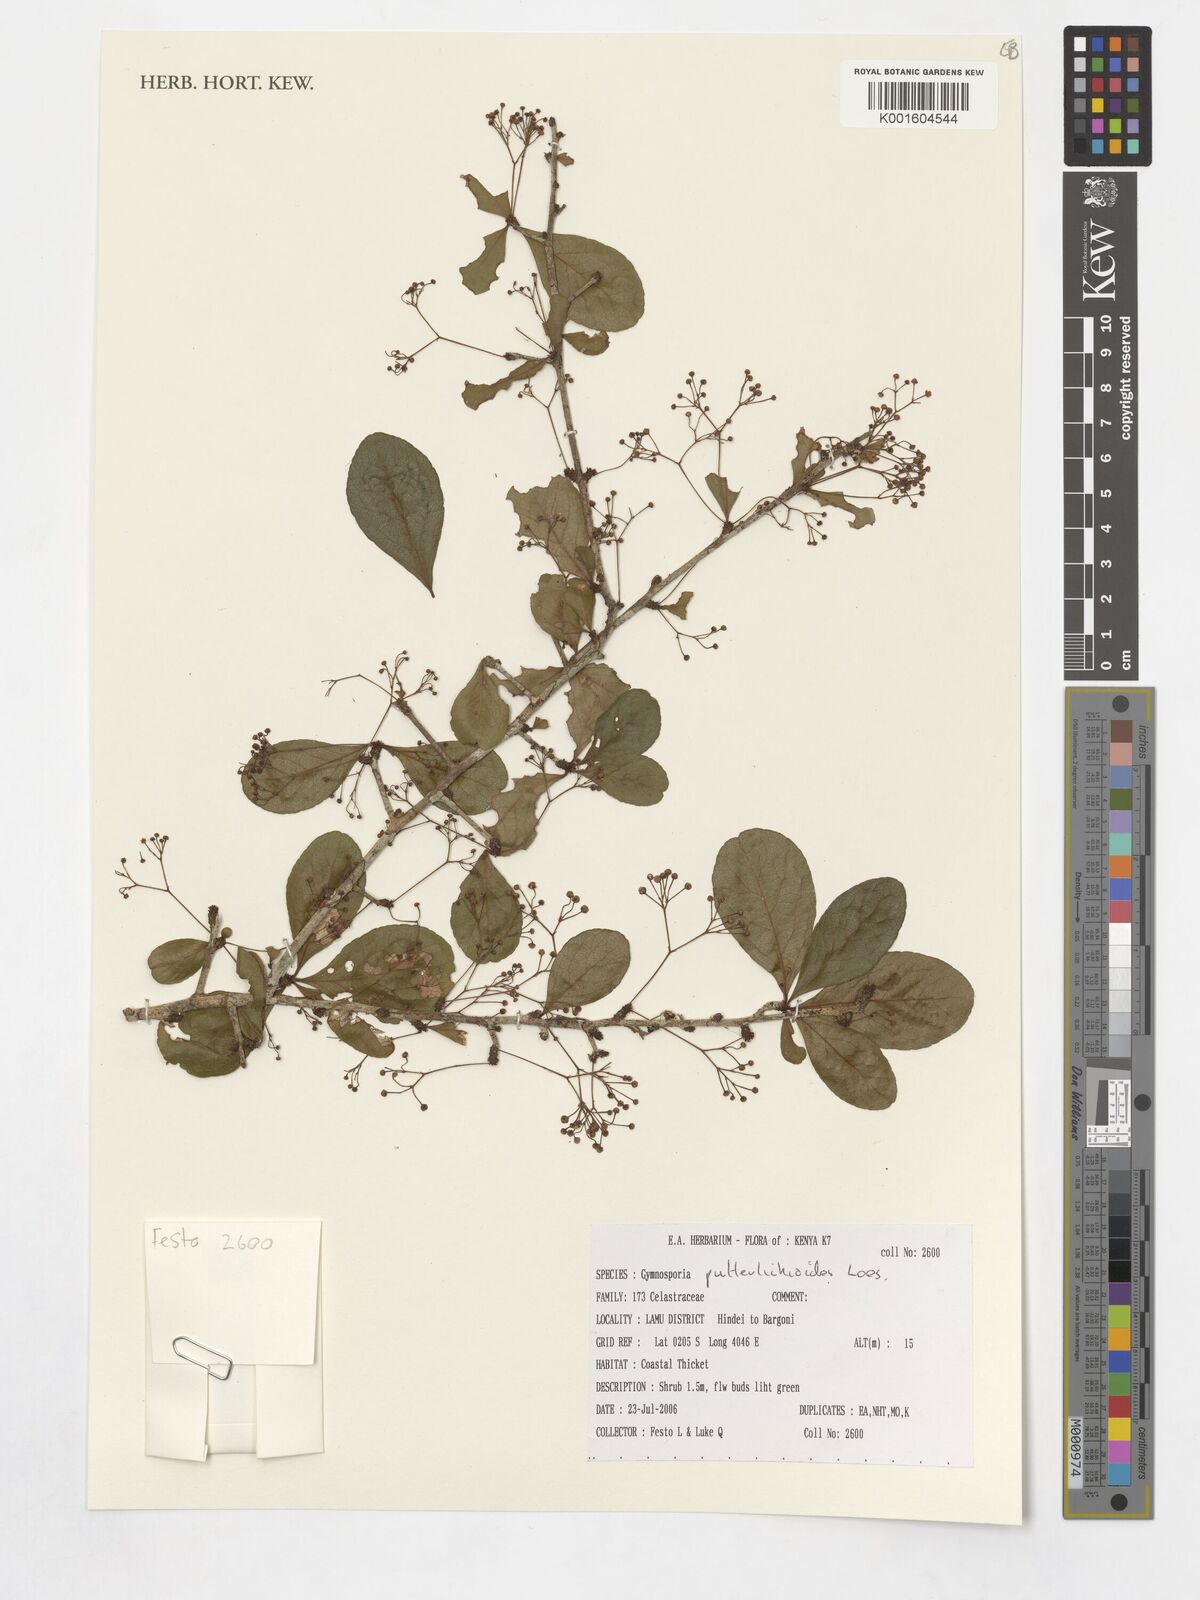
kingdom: Plantae
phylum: Tracheophyta
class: Magnoliopsida
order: Celastrales
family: Celastraceae
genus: Gymnosporia
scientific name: Gymnosporia putterlickioides
